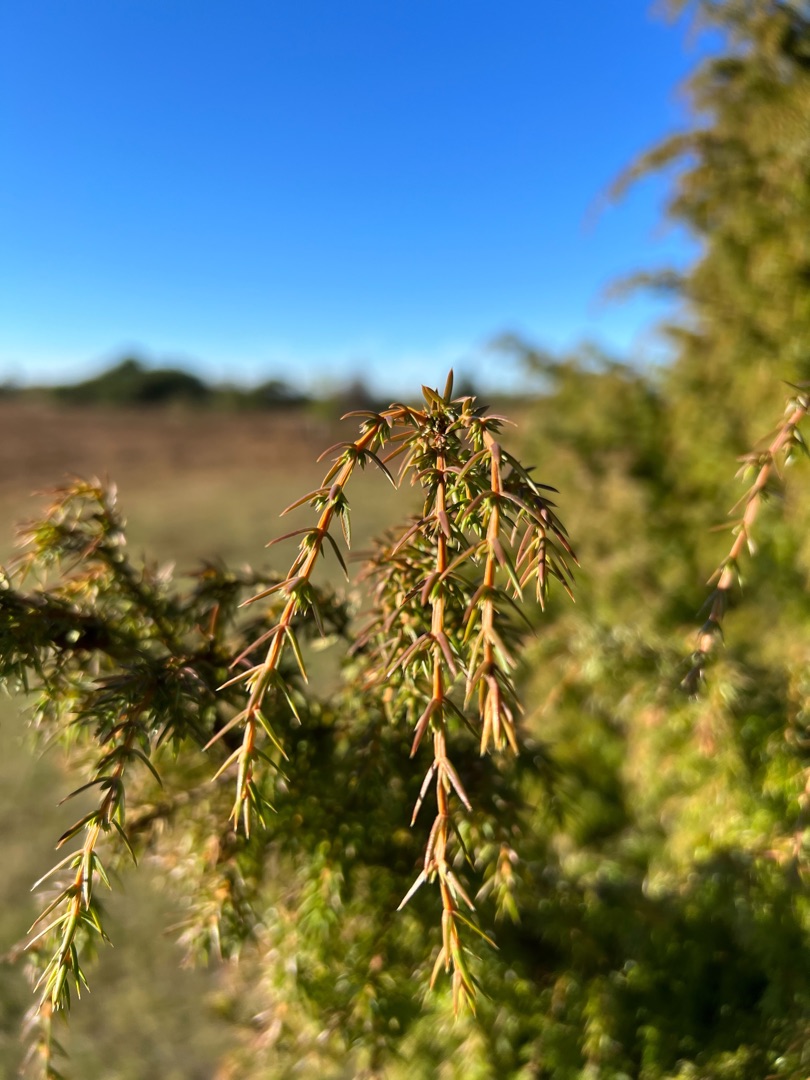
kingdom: Plantae
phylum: Tracheophyta
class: Pinopsida
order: Pinales
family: Cupressaceae
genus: Juniperus
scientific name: Juniperus communis
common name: Almindelig ene
